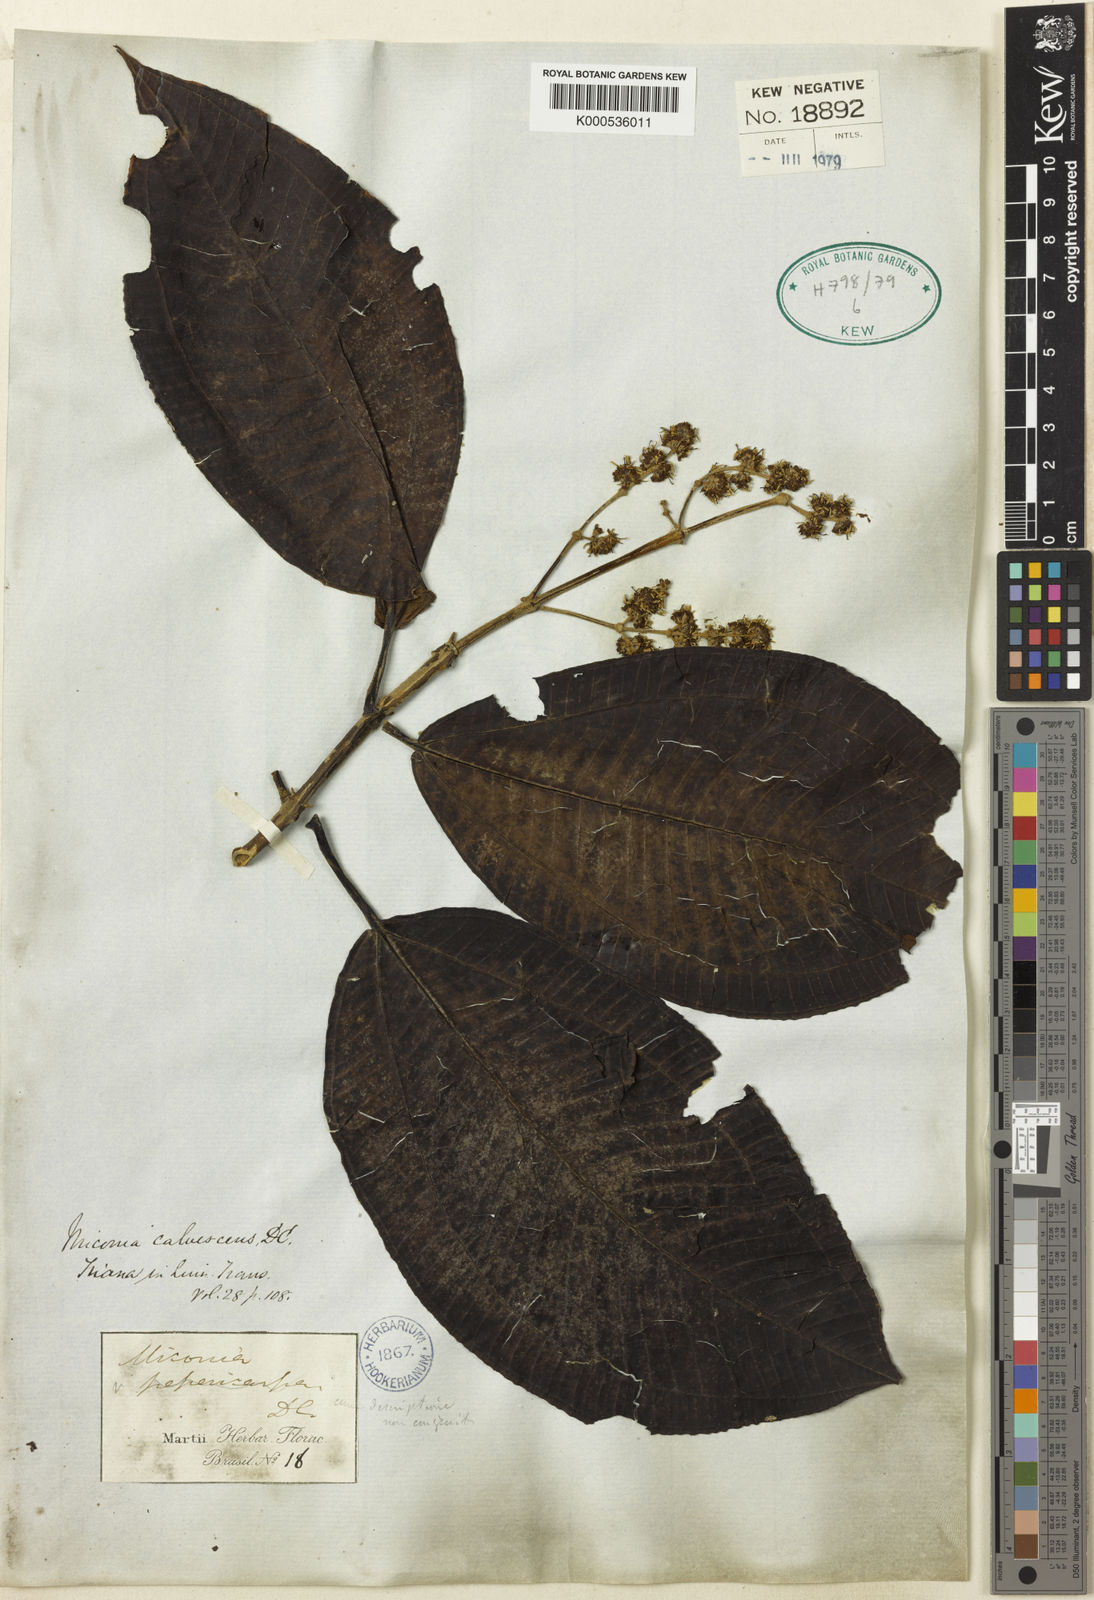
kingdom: Plantae
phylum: Tracheophyta
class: Magnoliopsida
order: Myrtales
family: Melastomataceae
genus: Miconia
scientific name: Miconia calvescens
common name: Purple plague
